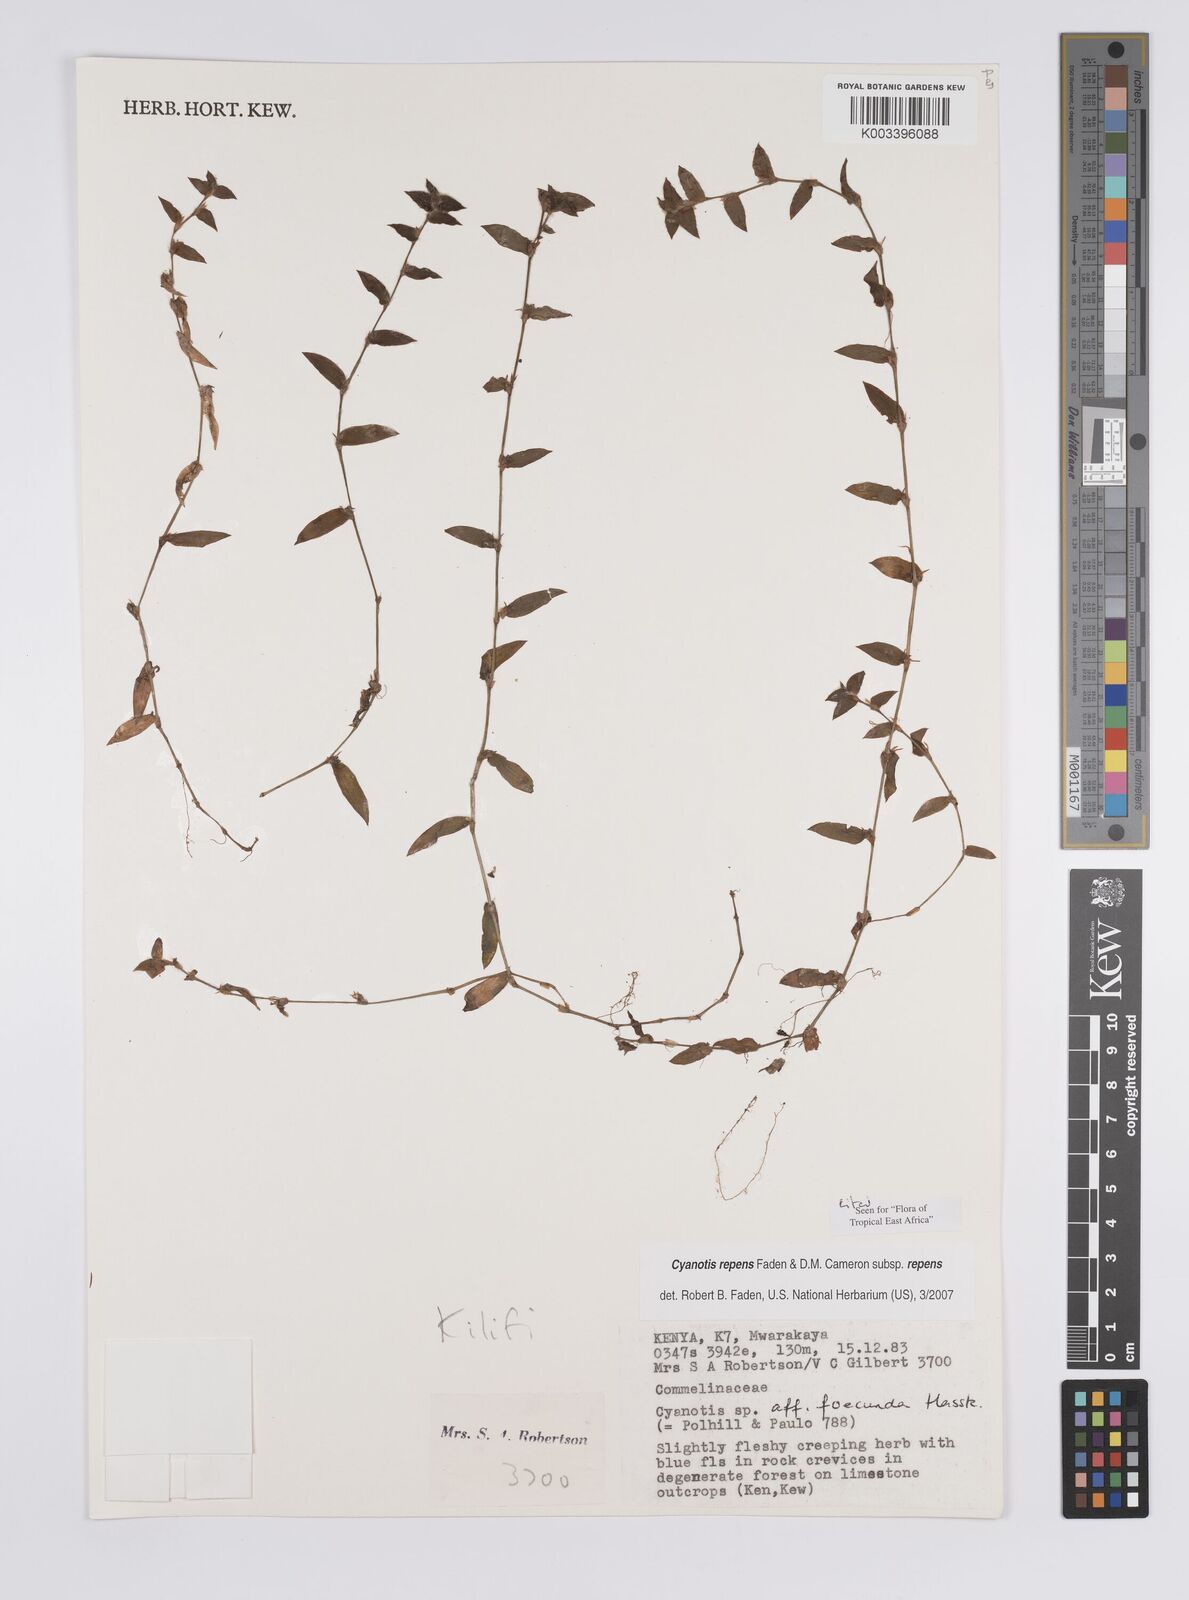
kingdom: Plantae
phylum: Tracheophyta
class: Liliopsida
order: Commelinales
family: Commelinaceae
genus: Cyanotis
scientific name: Cyanotis repens
